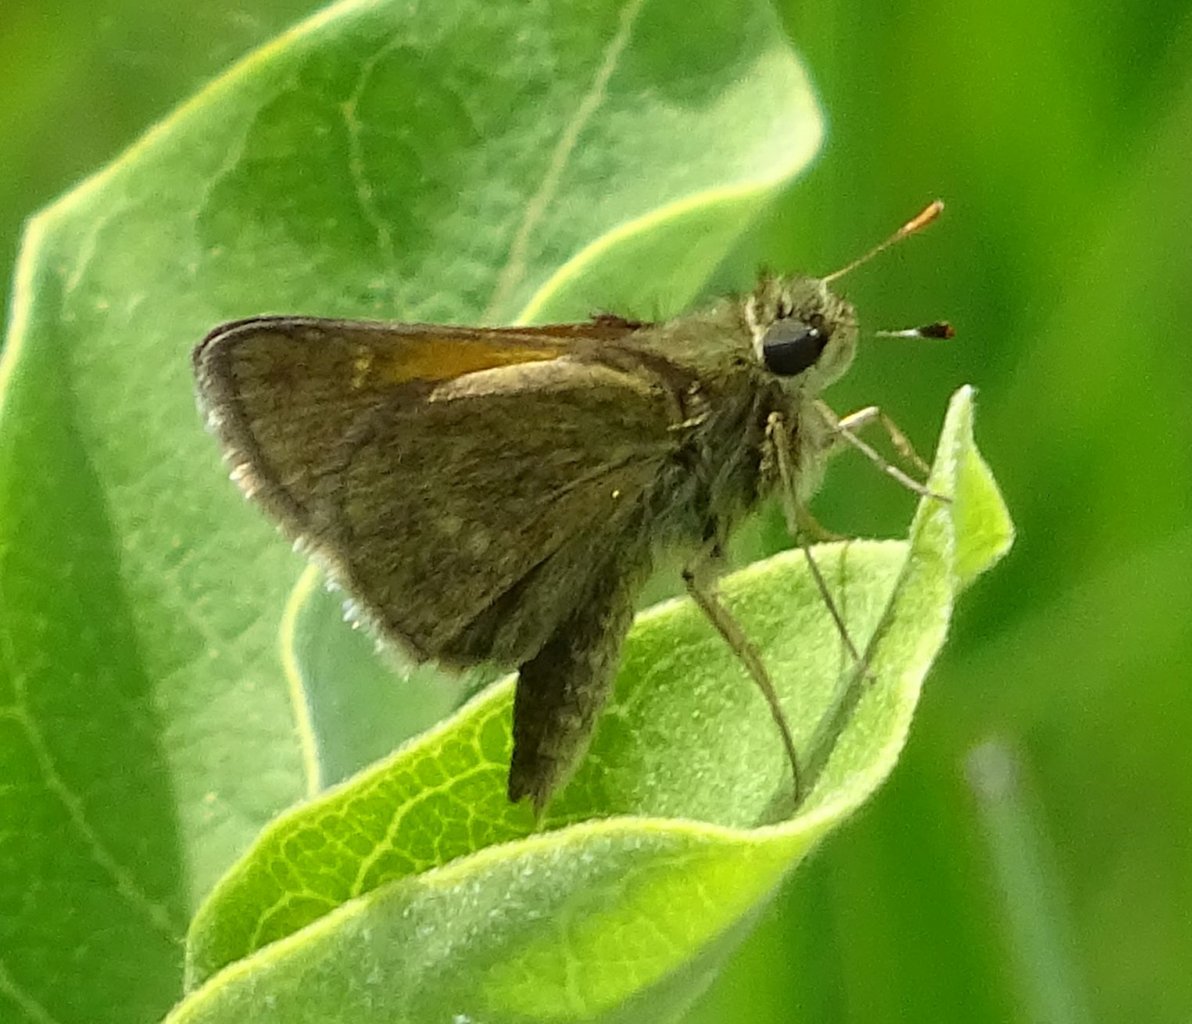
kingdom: Animalia
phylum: Arthropoda
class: Insecta
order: Lepidoptera
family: Hesperiidae
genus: Polites
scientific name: Polites themistocles
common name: Tawny-edged Skipper
